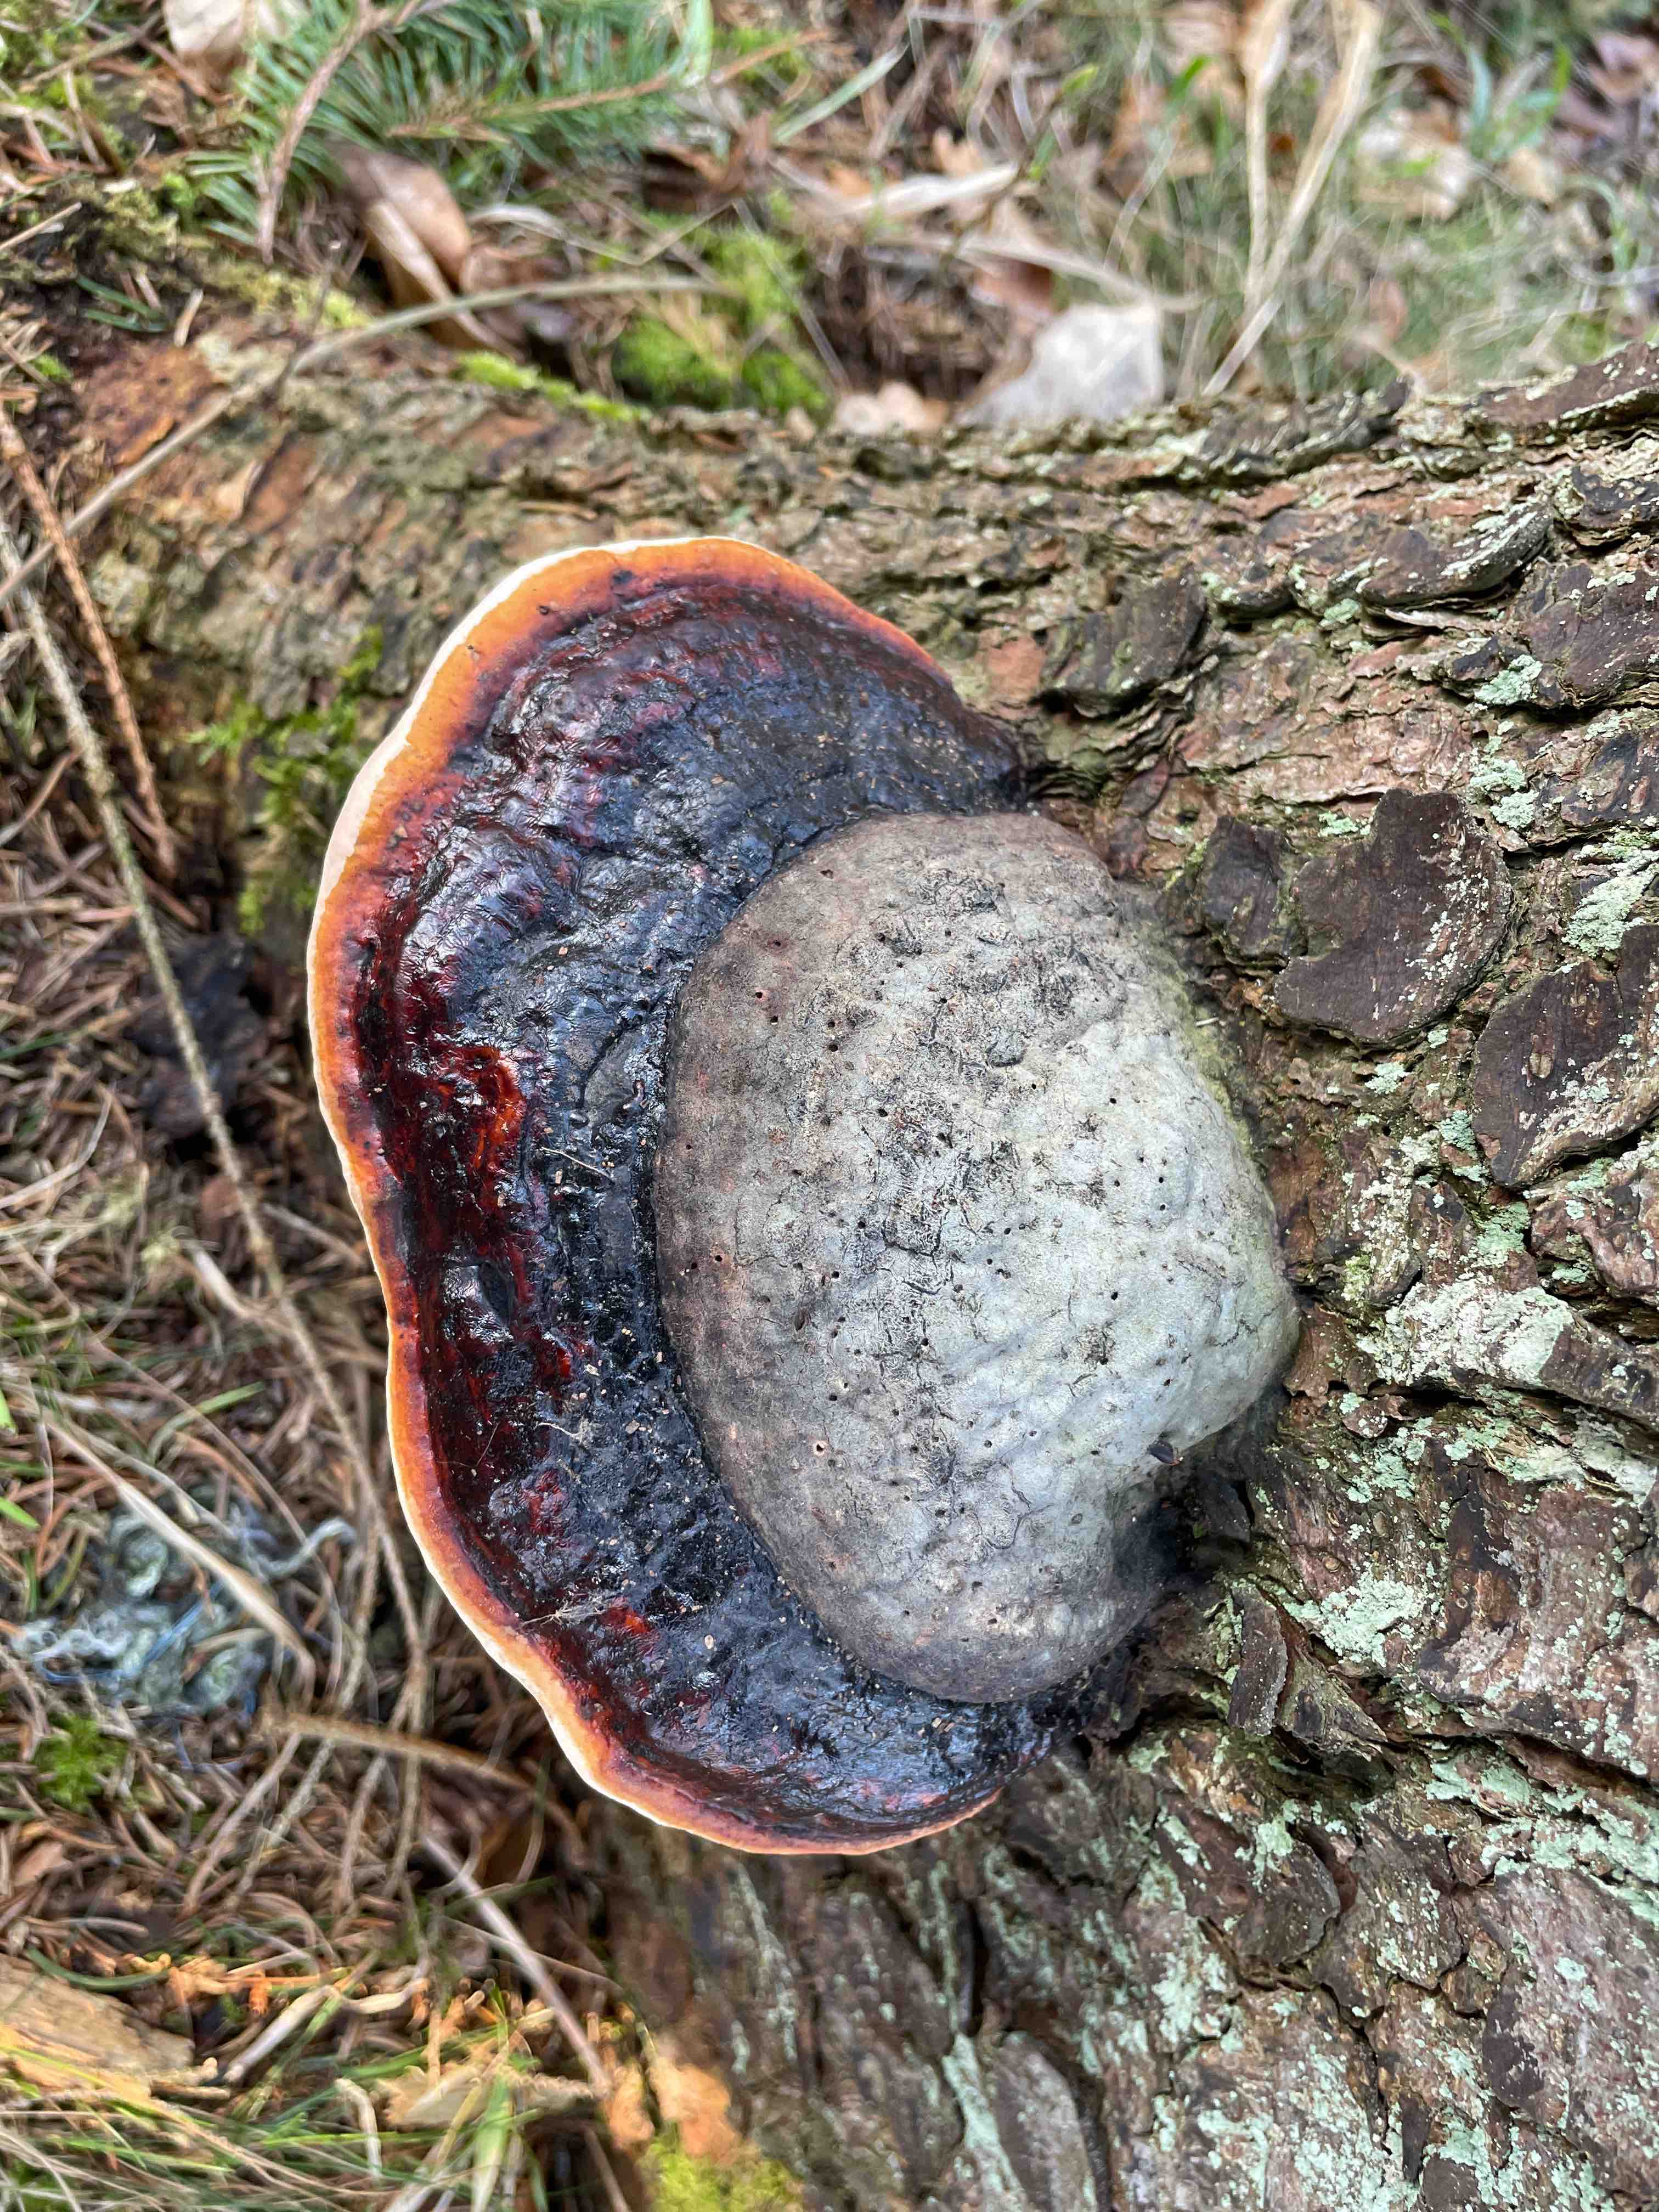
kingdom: Fungi
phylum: Basidiomycota
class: Agaricomycetes
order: Polyporales
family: Fomitopsidaceae
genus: Fomitopsis
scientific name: Fomitopsis pinicola
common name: randbæltet hovporesvamp
